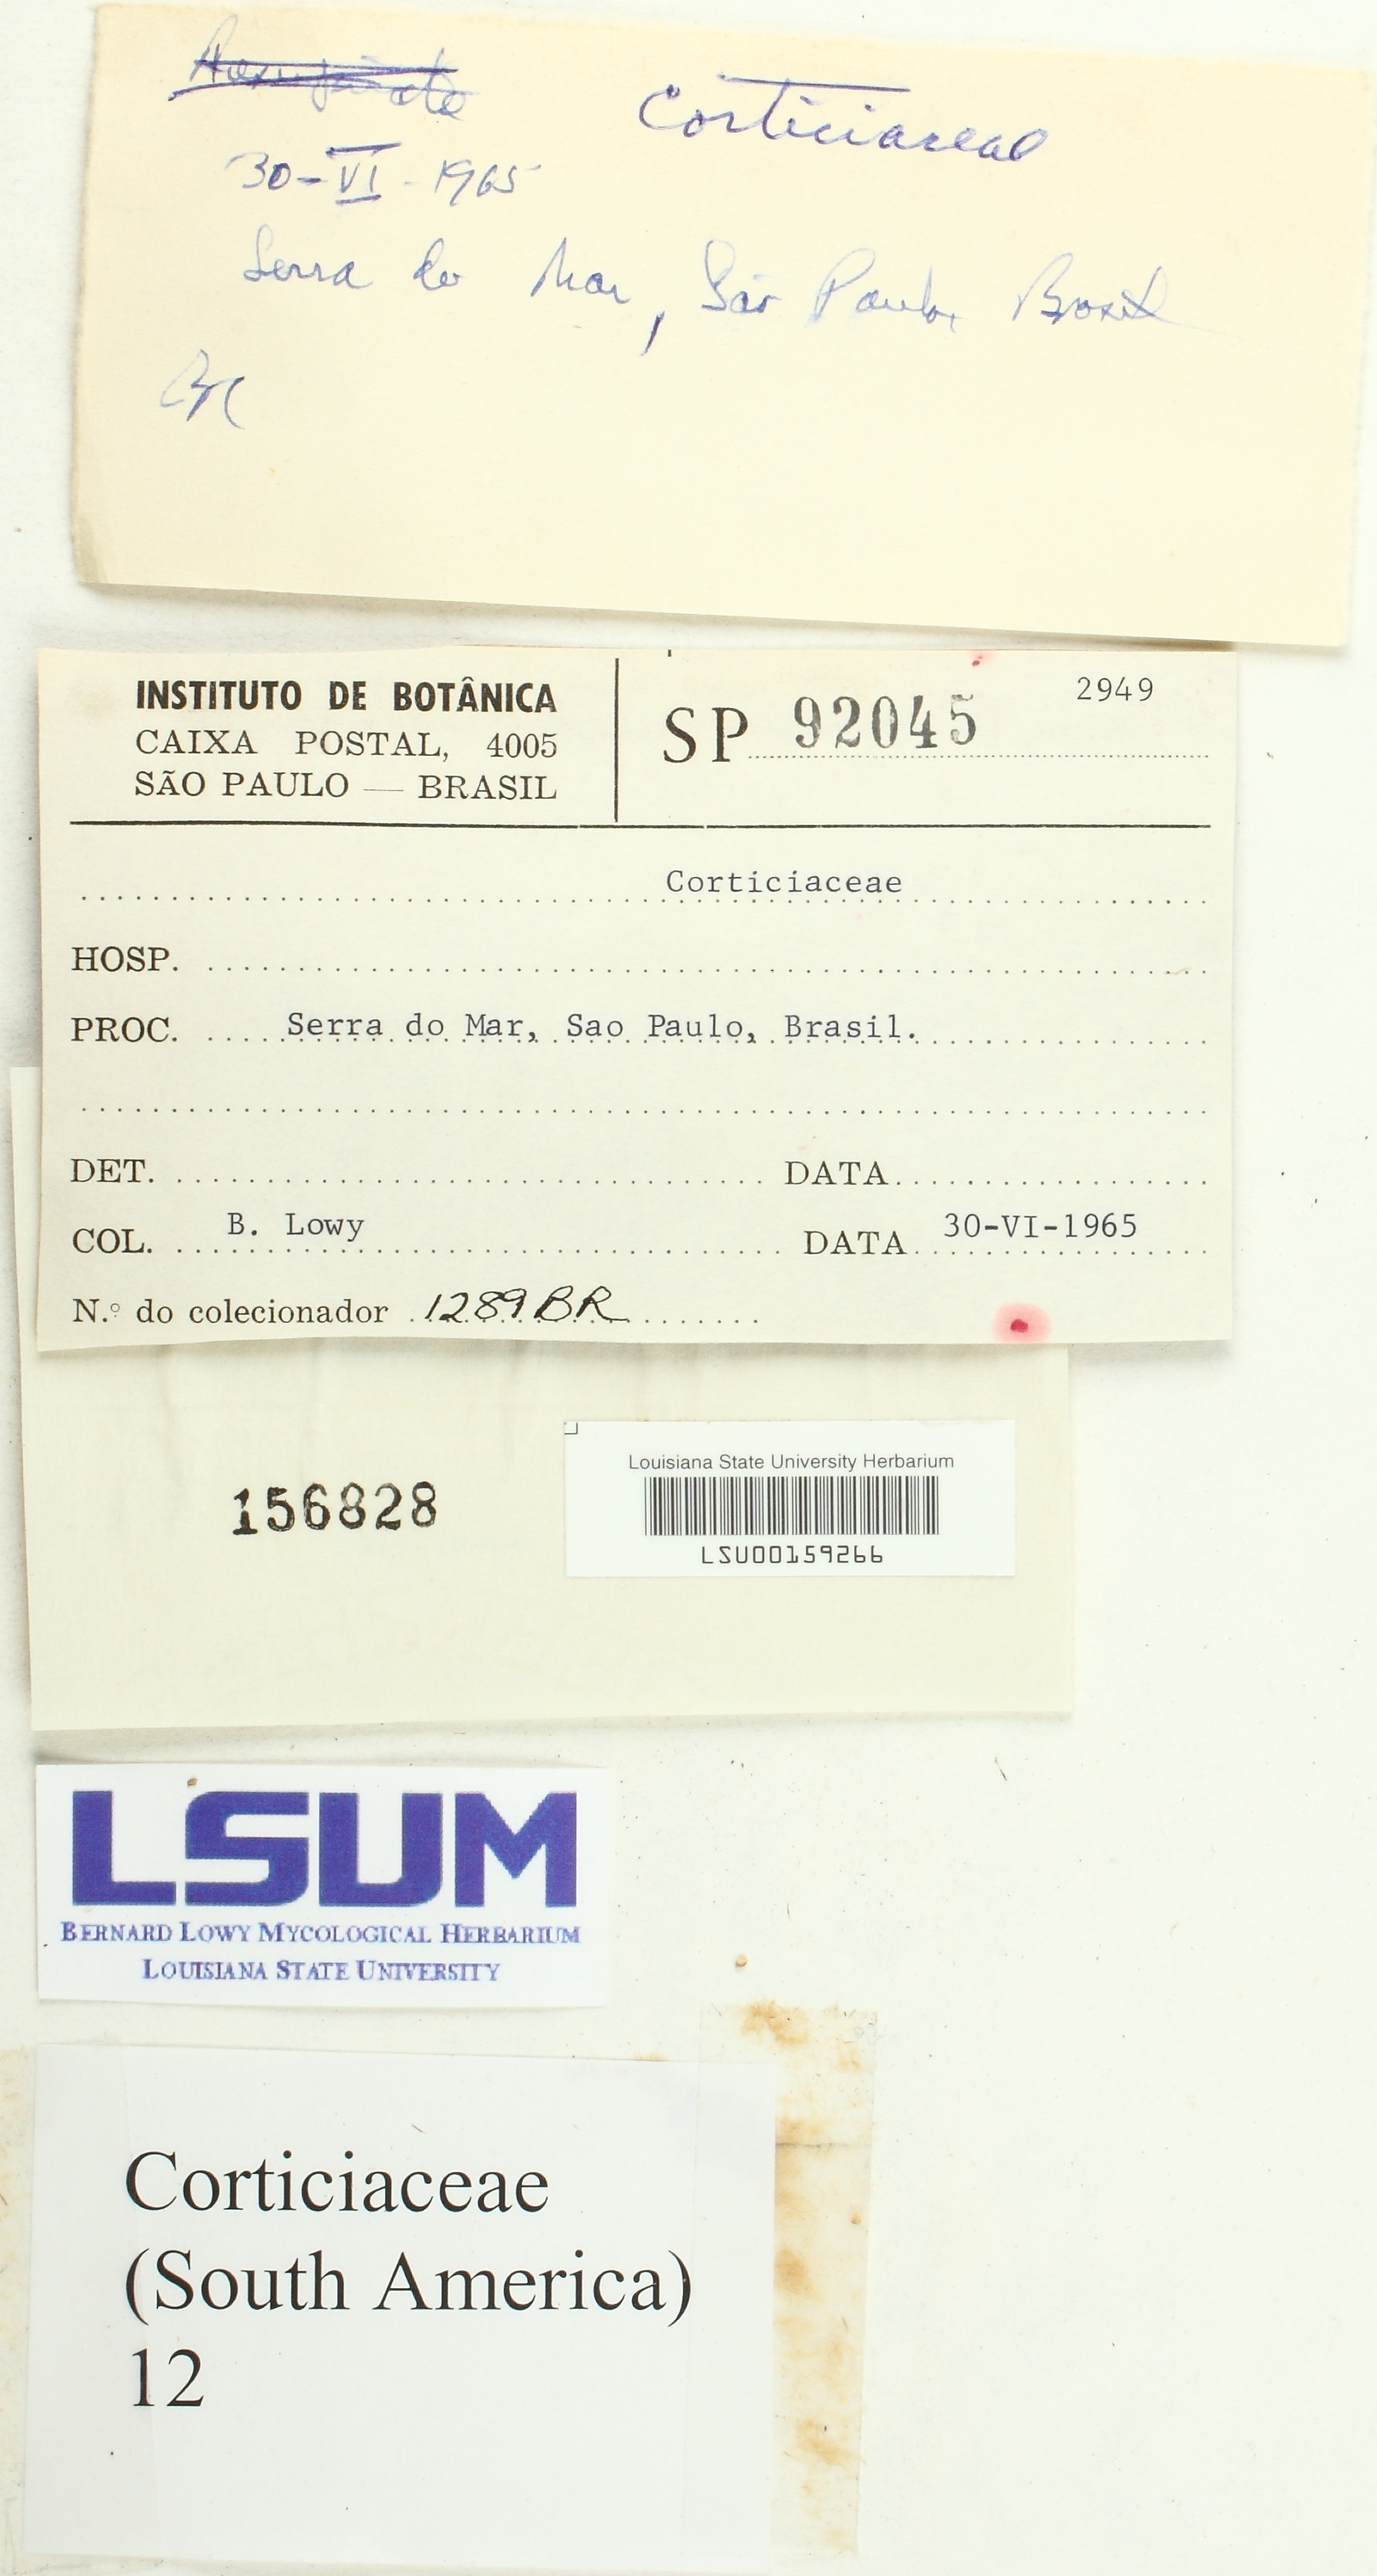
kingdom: Fungi
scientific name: Fungi
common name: Fungi
